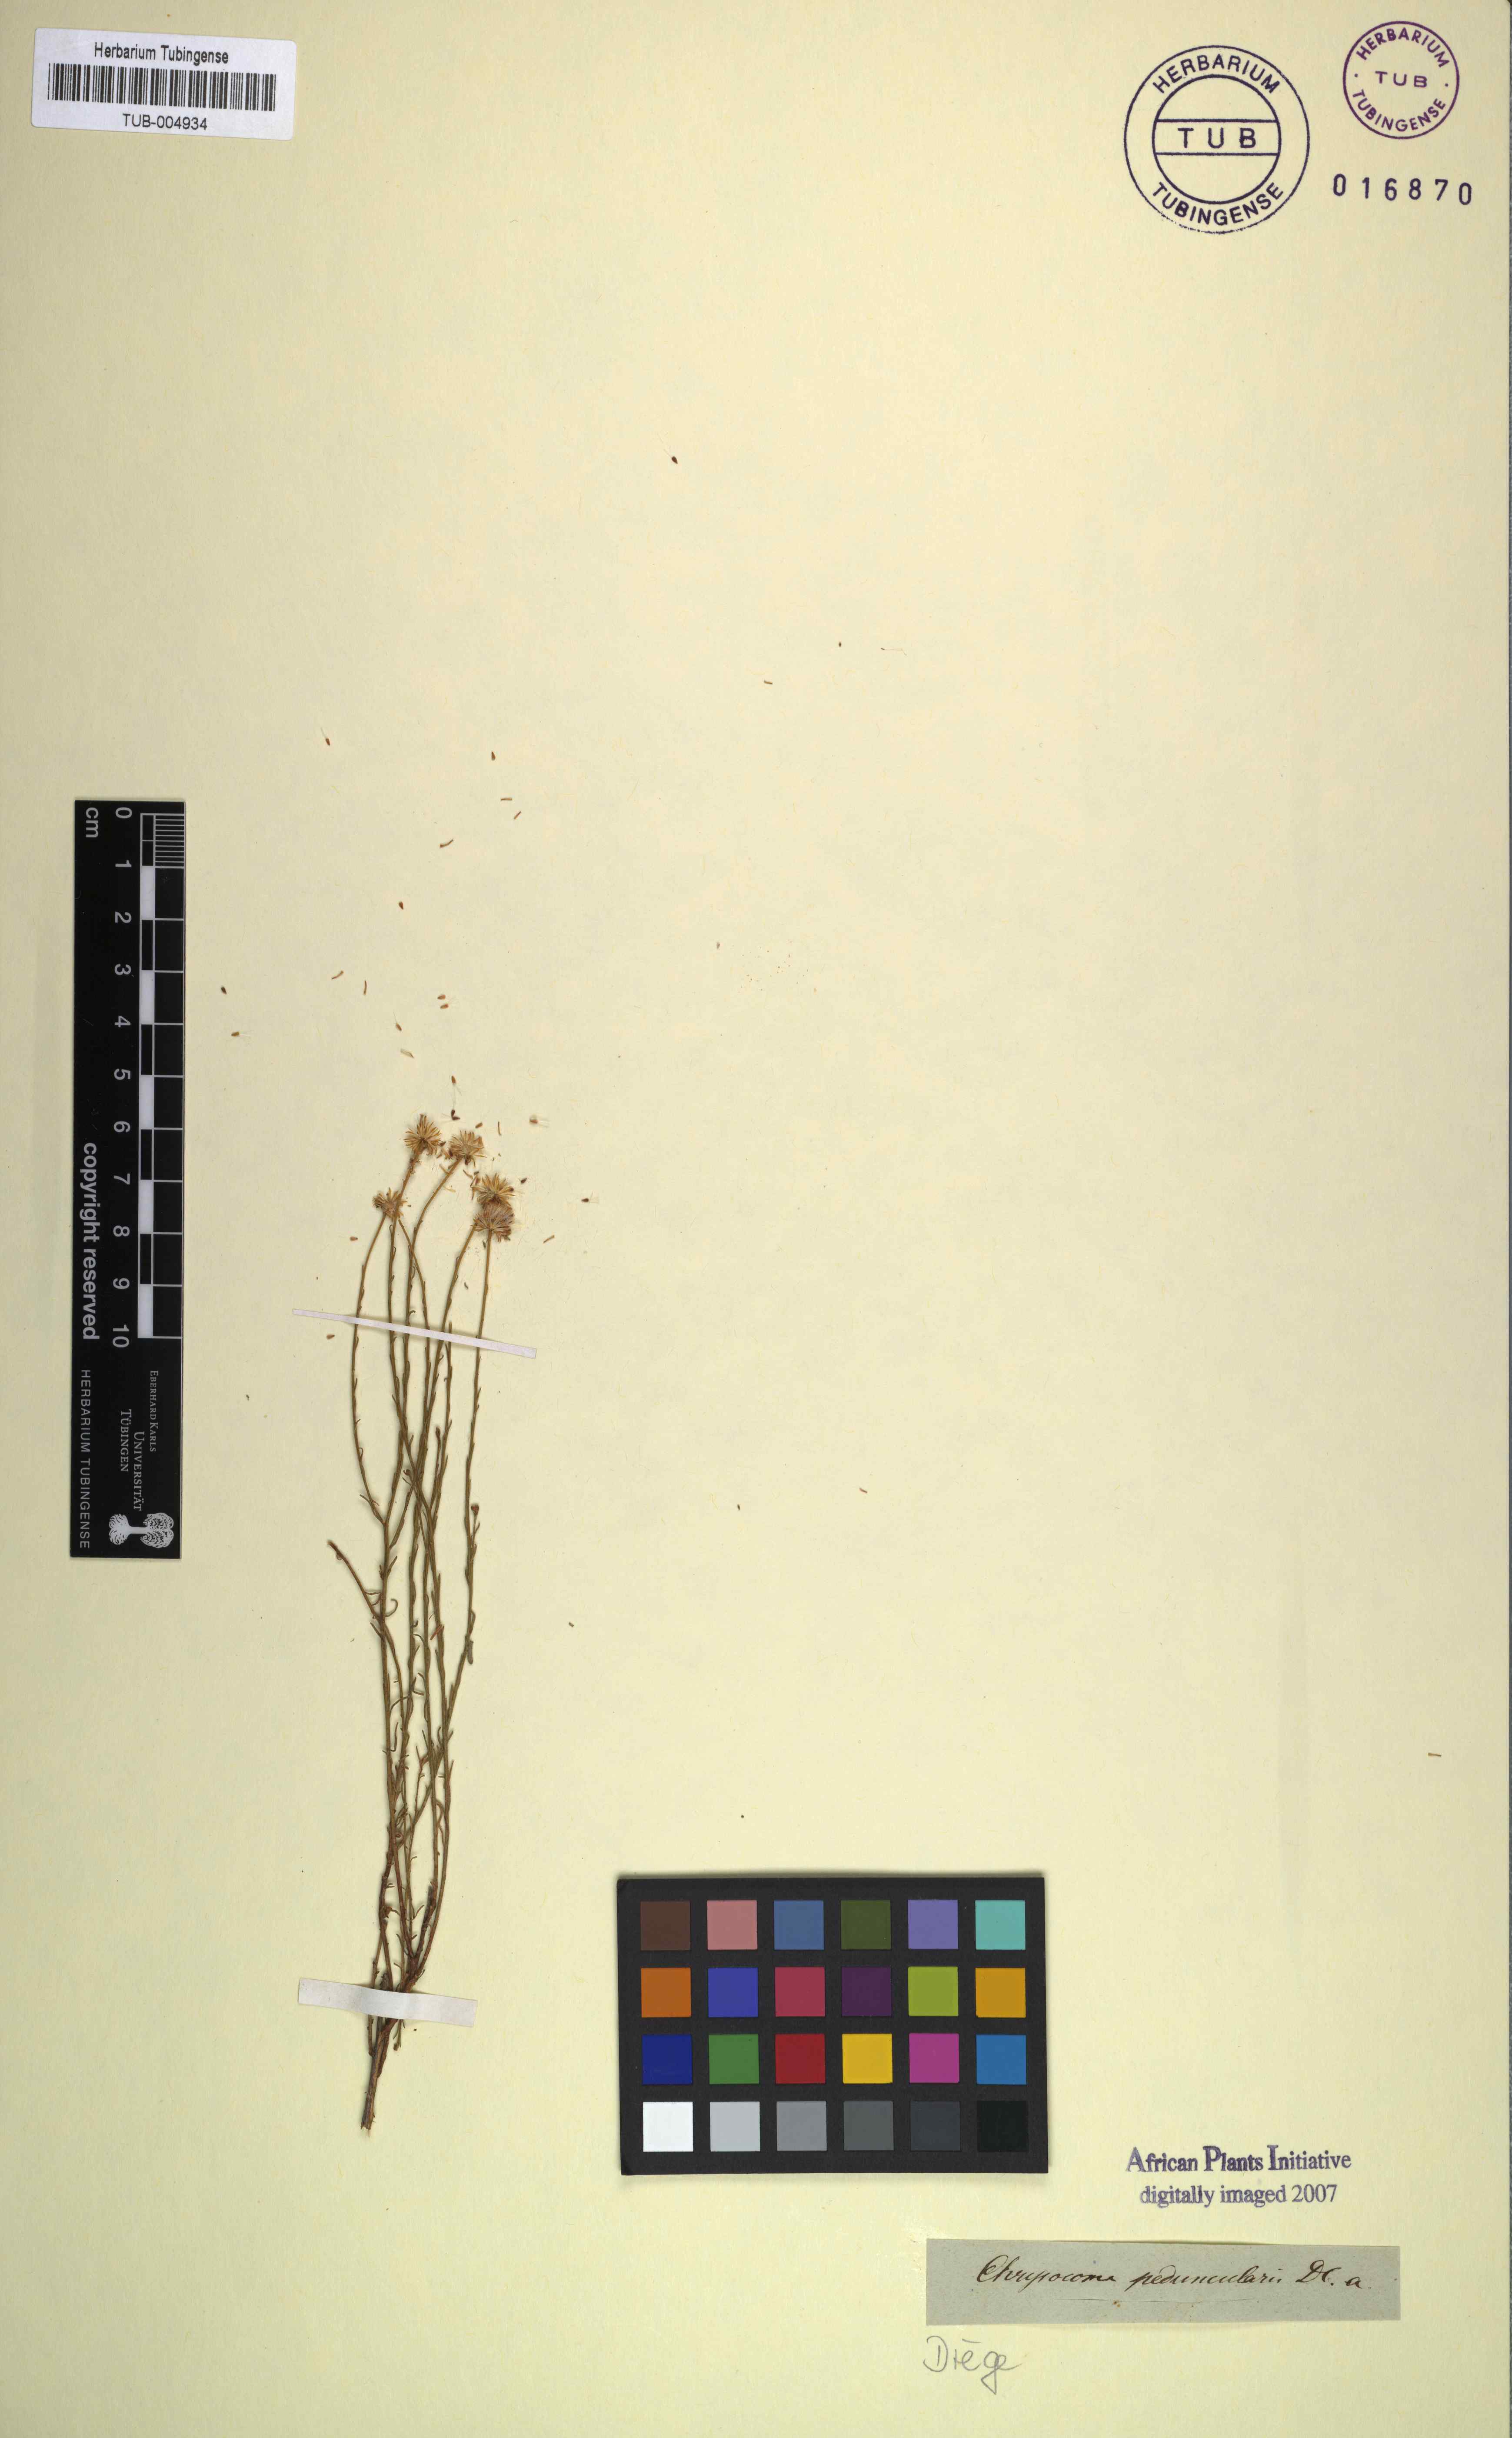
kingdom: Plantae
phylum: Tracheophyta
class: Magnoliopsida
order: Asterales
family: Asteraceae
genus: Chrysocoma
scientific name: Chrysocoma microphylla
